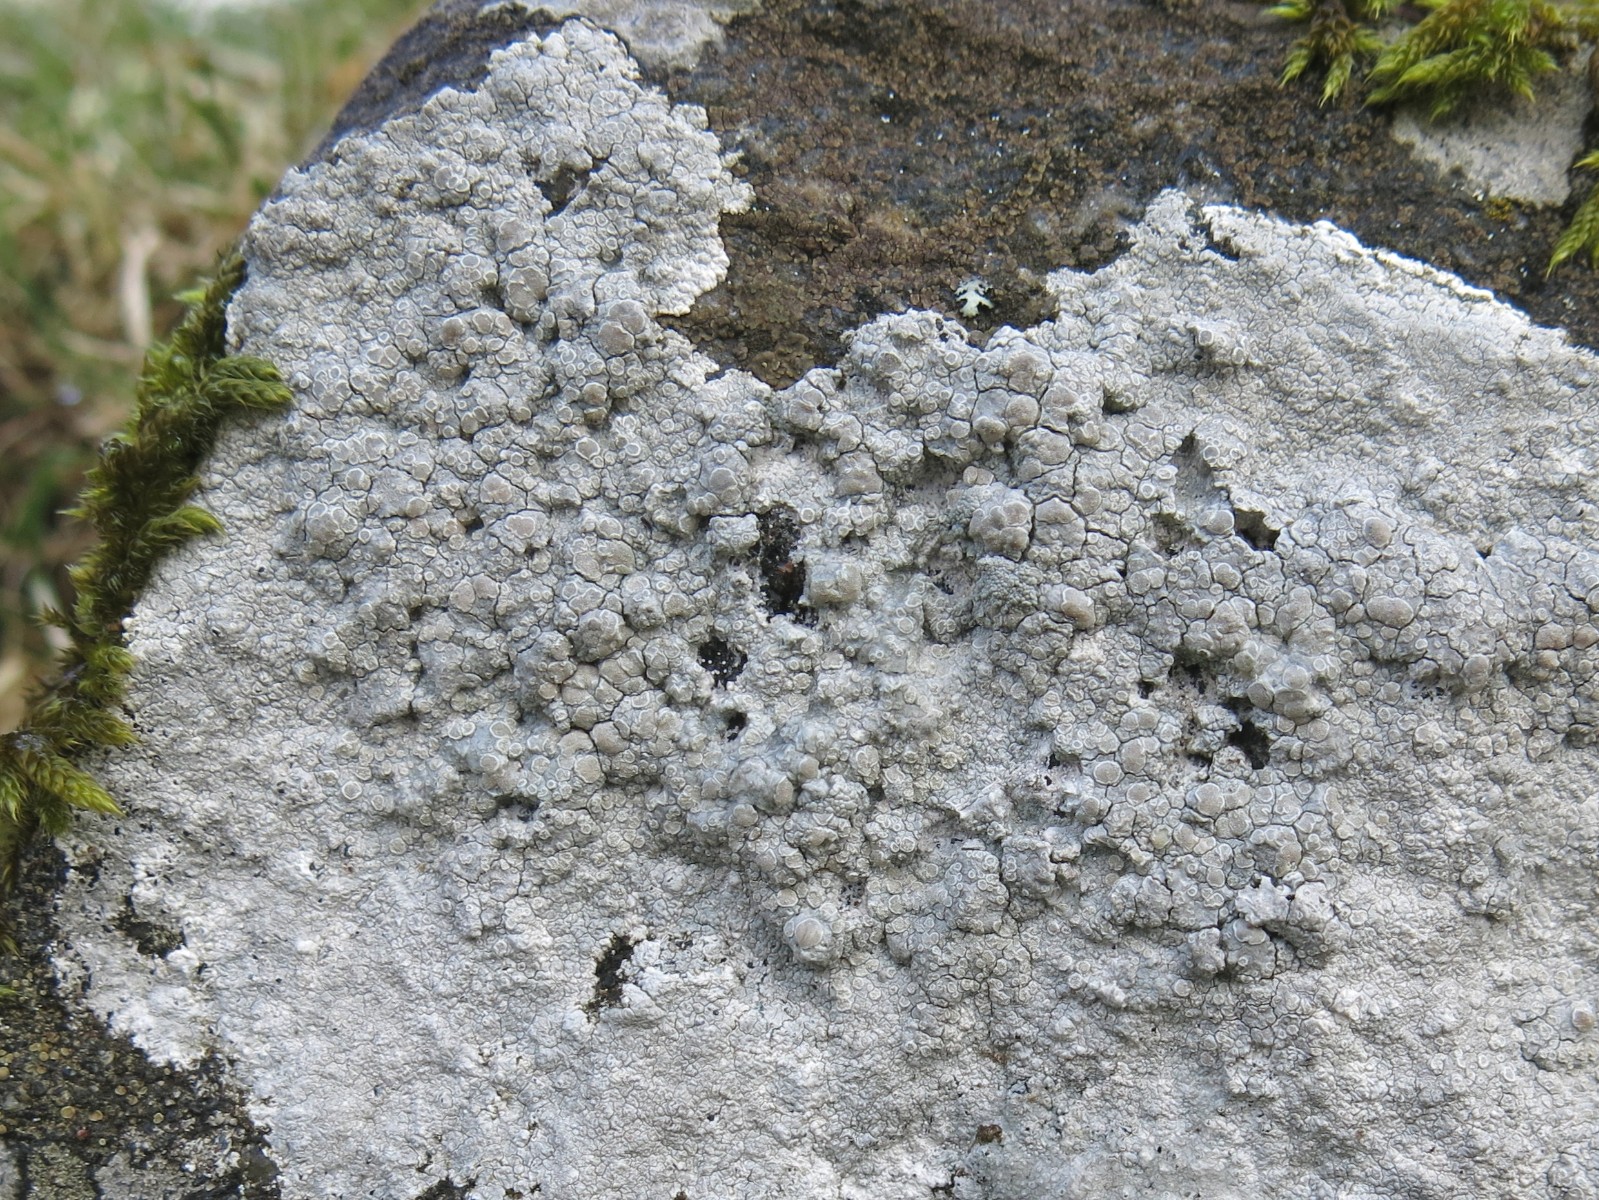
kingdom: Fungi
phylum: Ascomycota
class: Lecanoromycetes
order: Lecanorales
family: Lecanoraceae
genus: Glaucomaria
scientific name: Glaucomaria rupicola
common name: stengærde-kantskivelav
